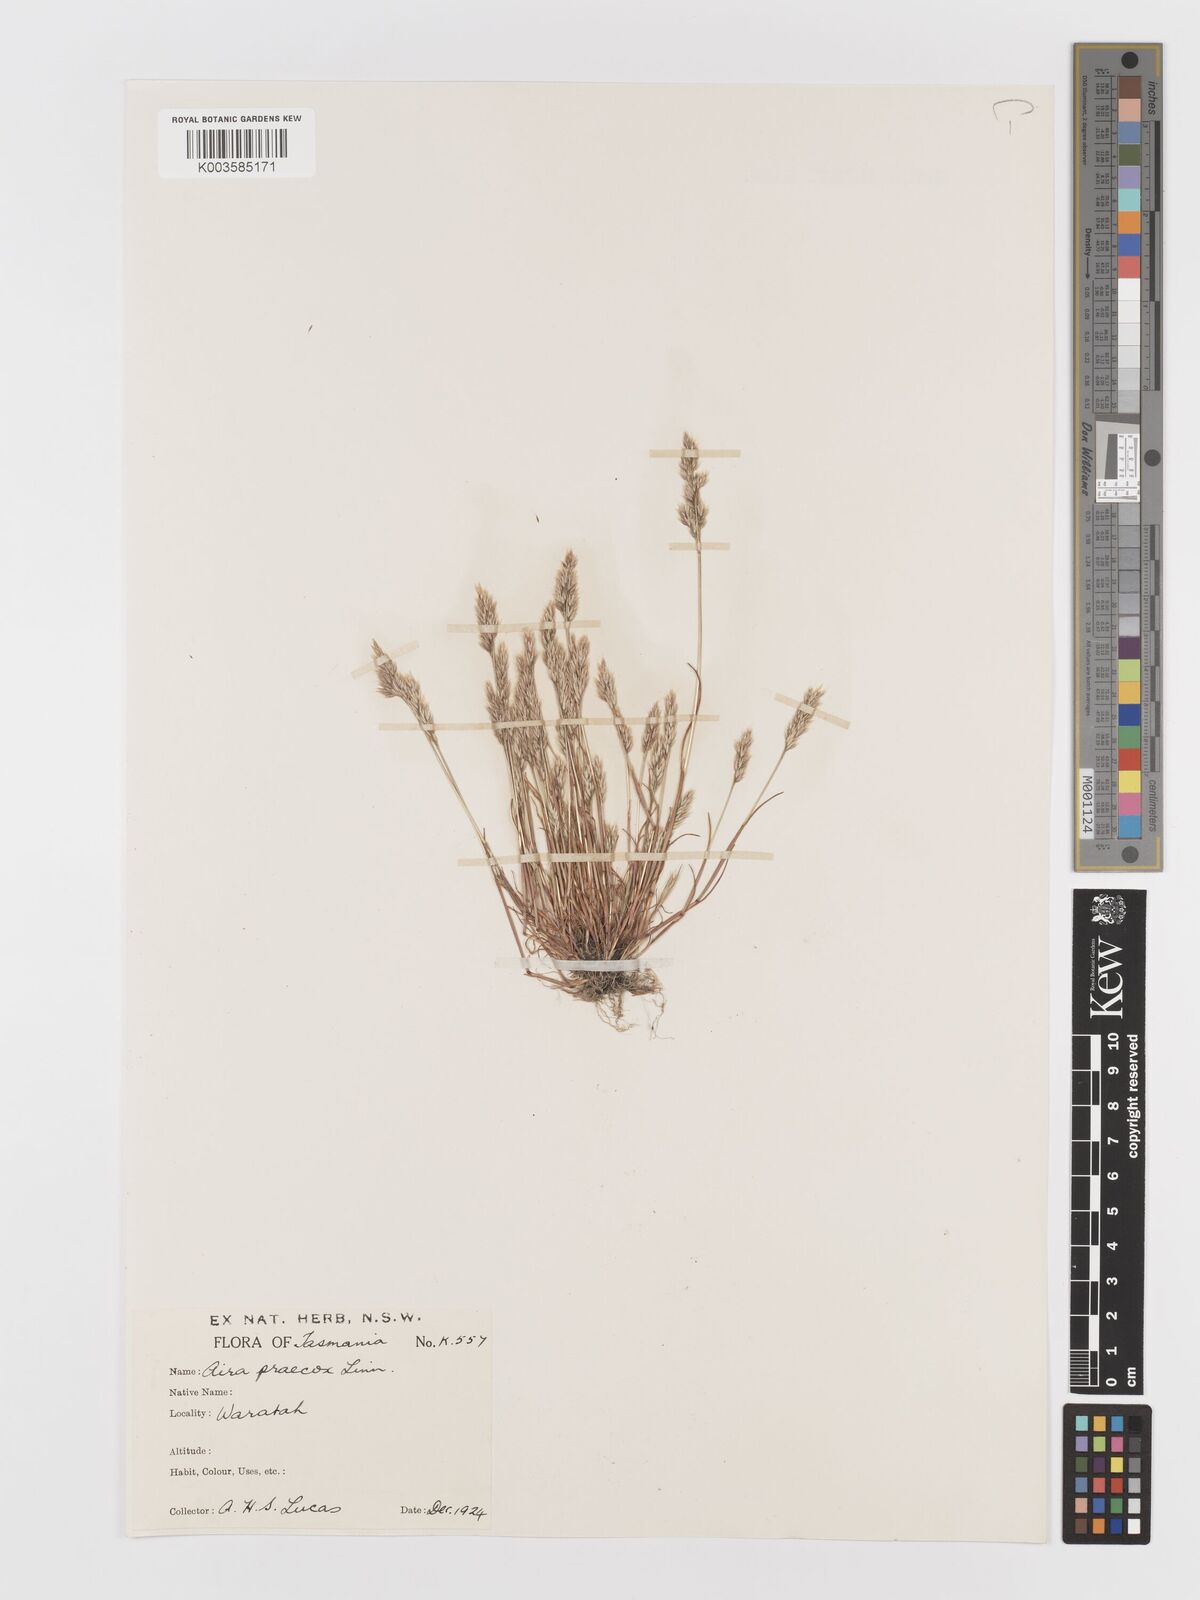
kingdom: Plantae
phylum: Tracheophyta
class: Liliopsida
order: Poales
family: Poaceae
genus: Aira
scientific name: Aira praecox
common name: Early hair-grass
